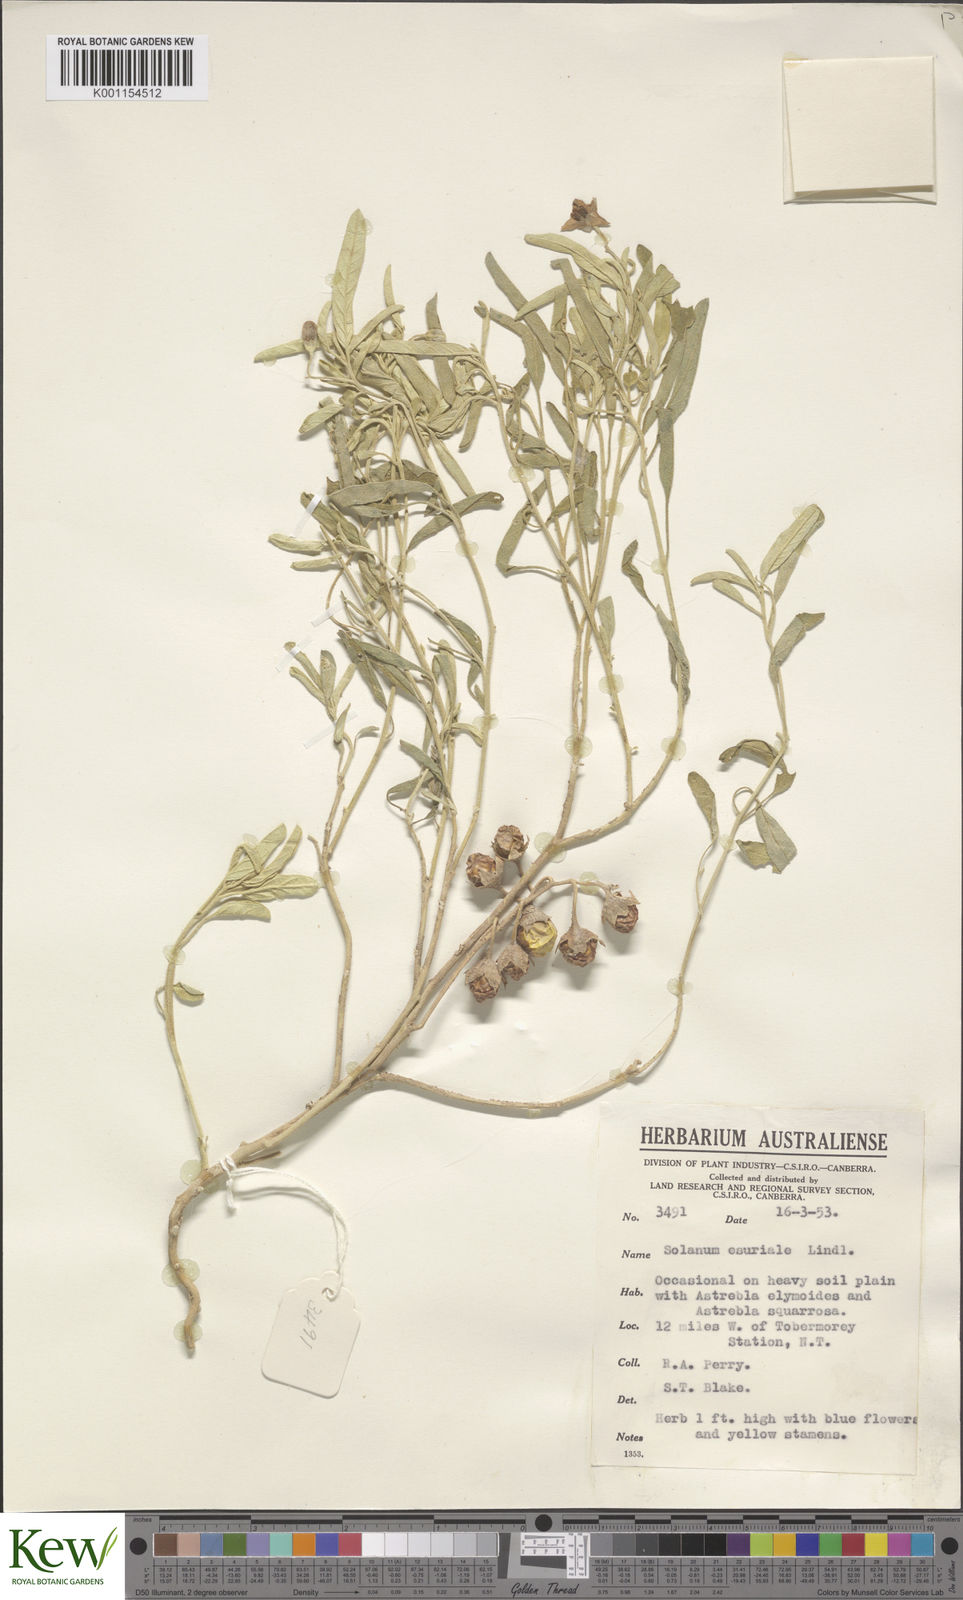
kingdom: Plantae
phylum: Tracheophyta
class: Magnoliopsida
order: Solanales
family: Solanaceae
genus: Solanum
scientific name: Solanum esuriale
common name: Wild tomato
